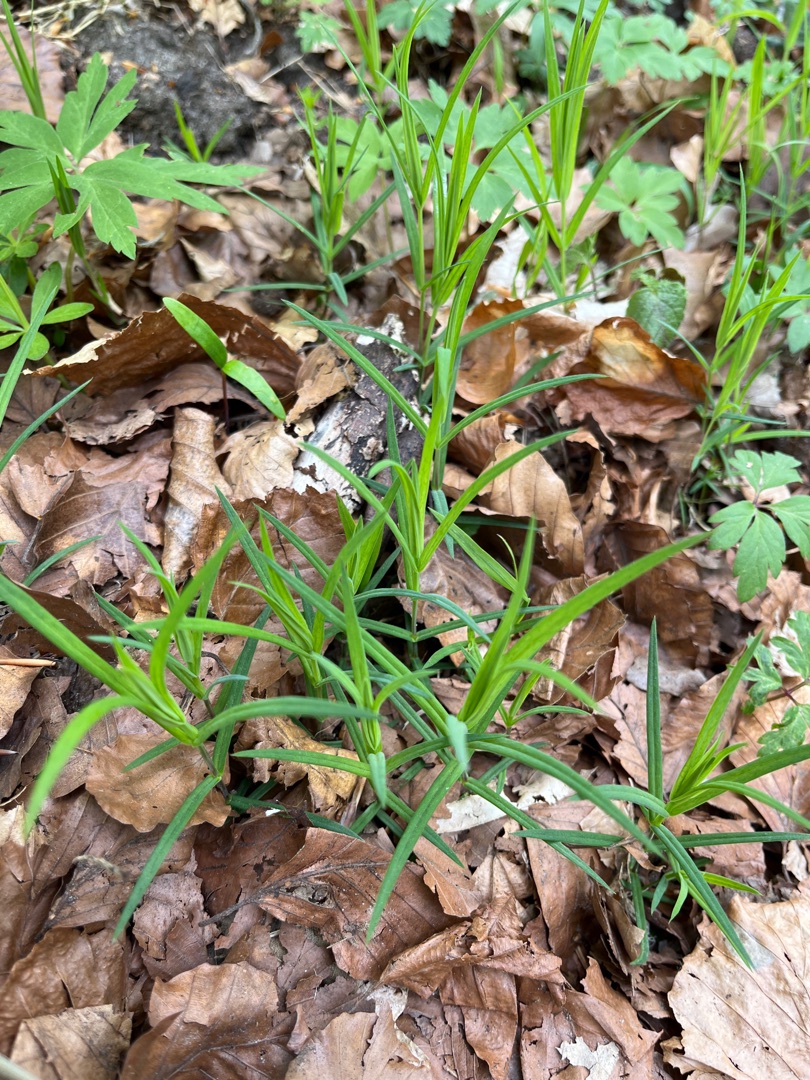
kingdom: Plantae
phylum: Tracheophyta
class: Magnoliopsida
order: Caryophyllales
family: Caryophyllaceae
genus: Rabelera
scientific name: Rabelera holostea
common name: Stor fladstjerne
